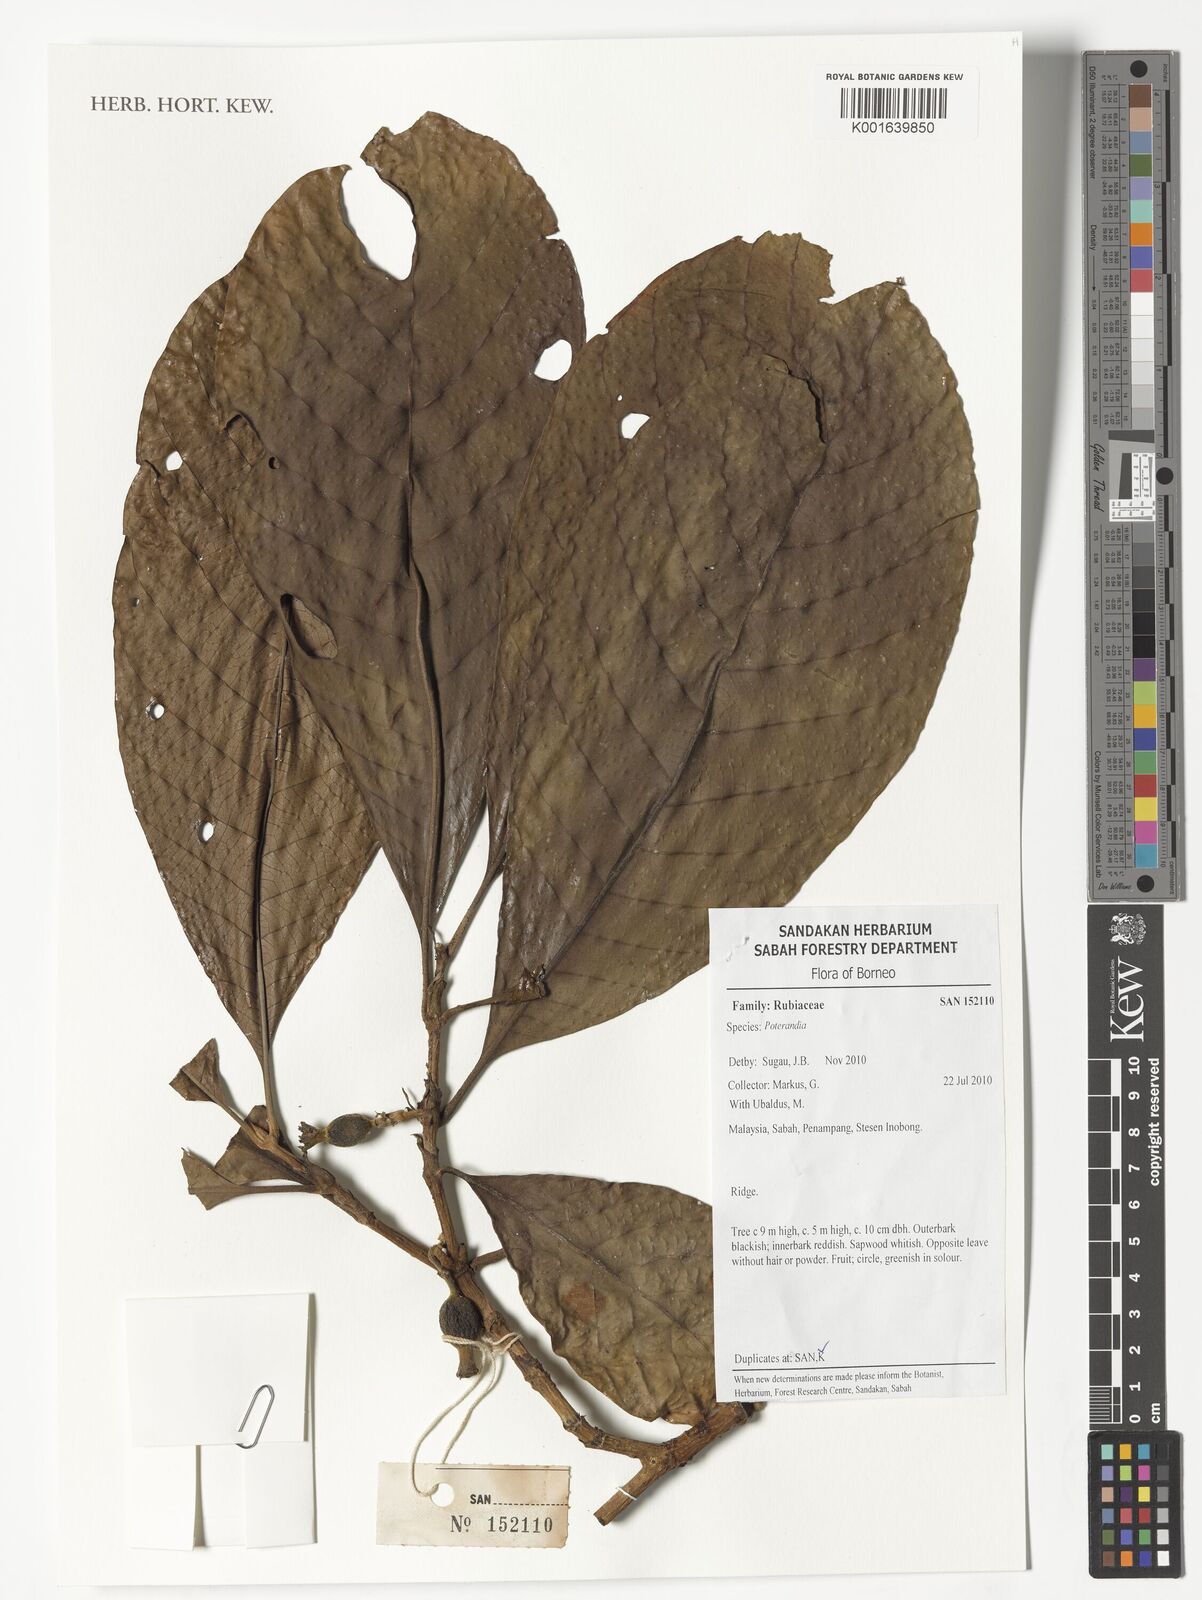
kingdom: Plantae
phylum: Tracheophyta
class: Magnoliopsida
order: Gentianales
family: Rubiaceae
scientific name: Rubiaceae
